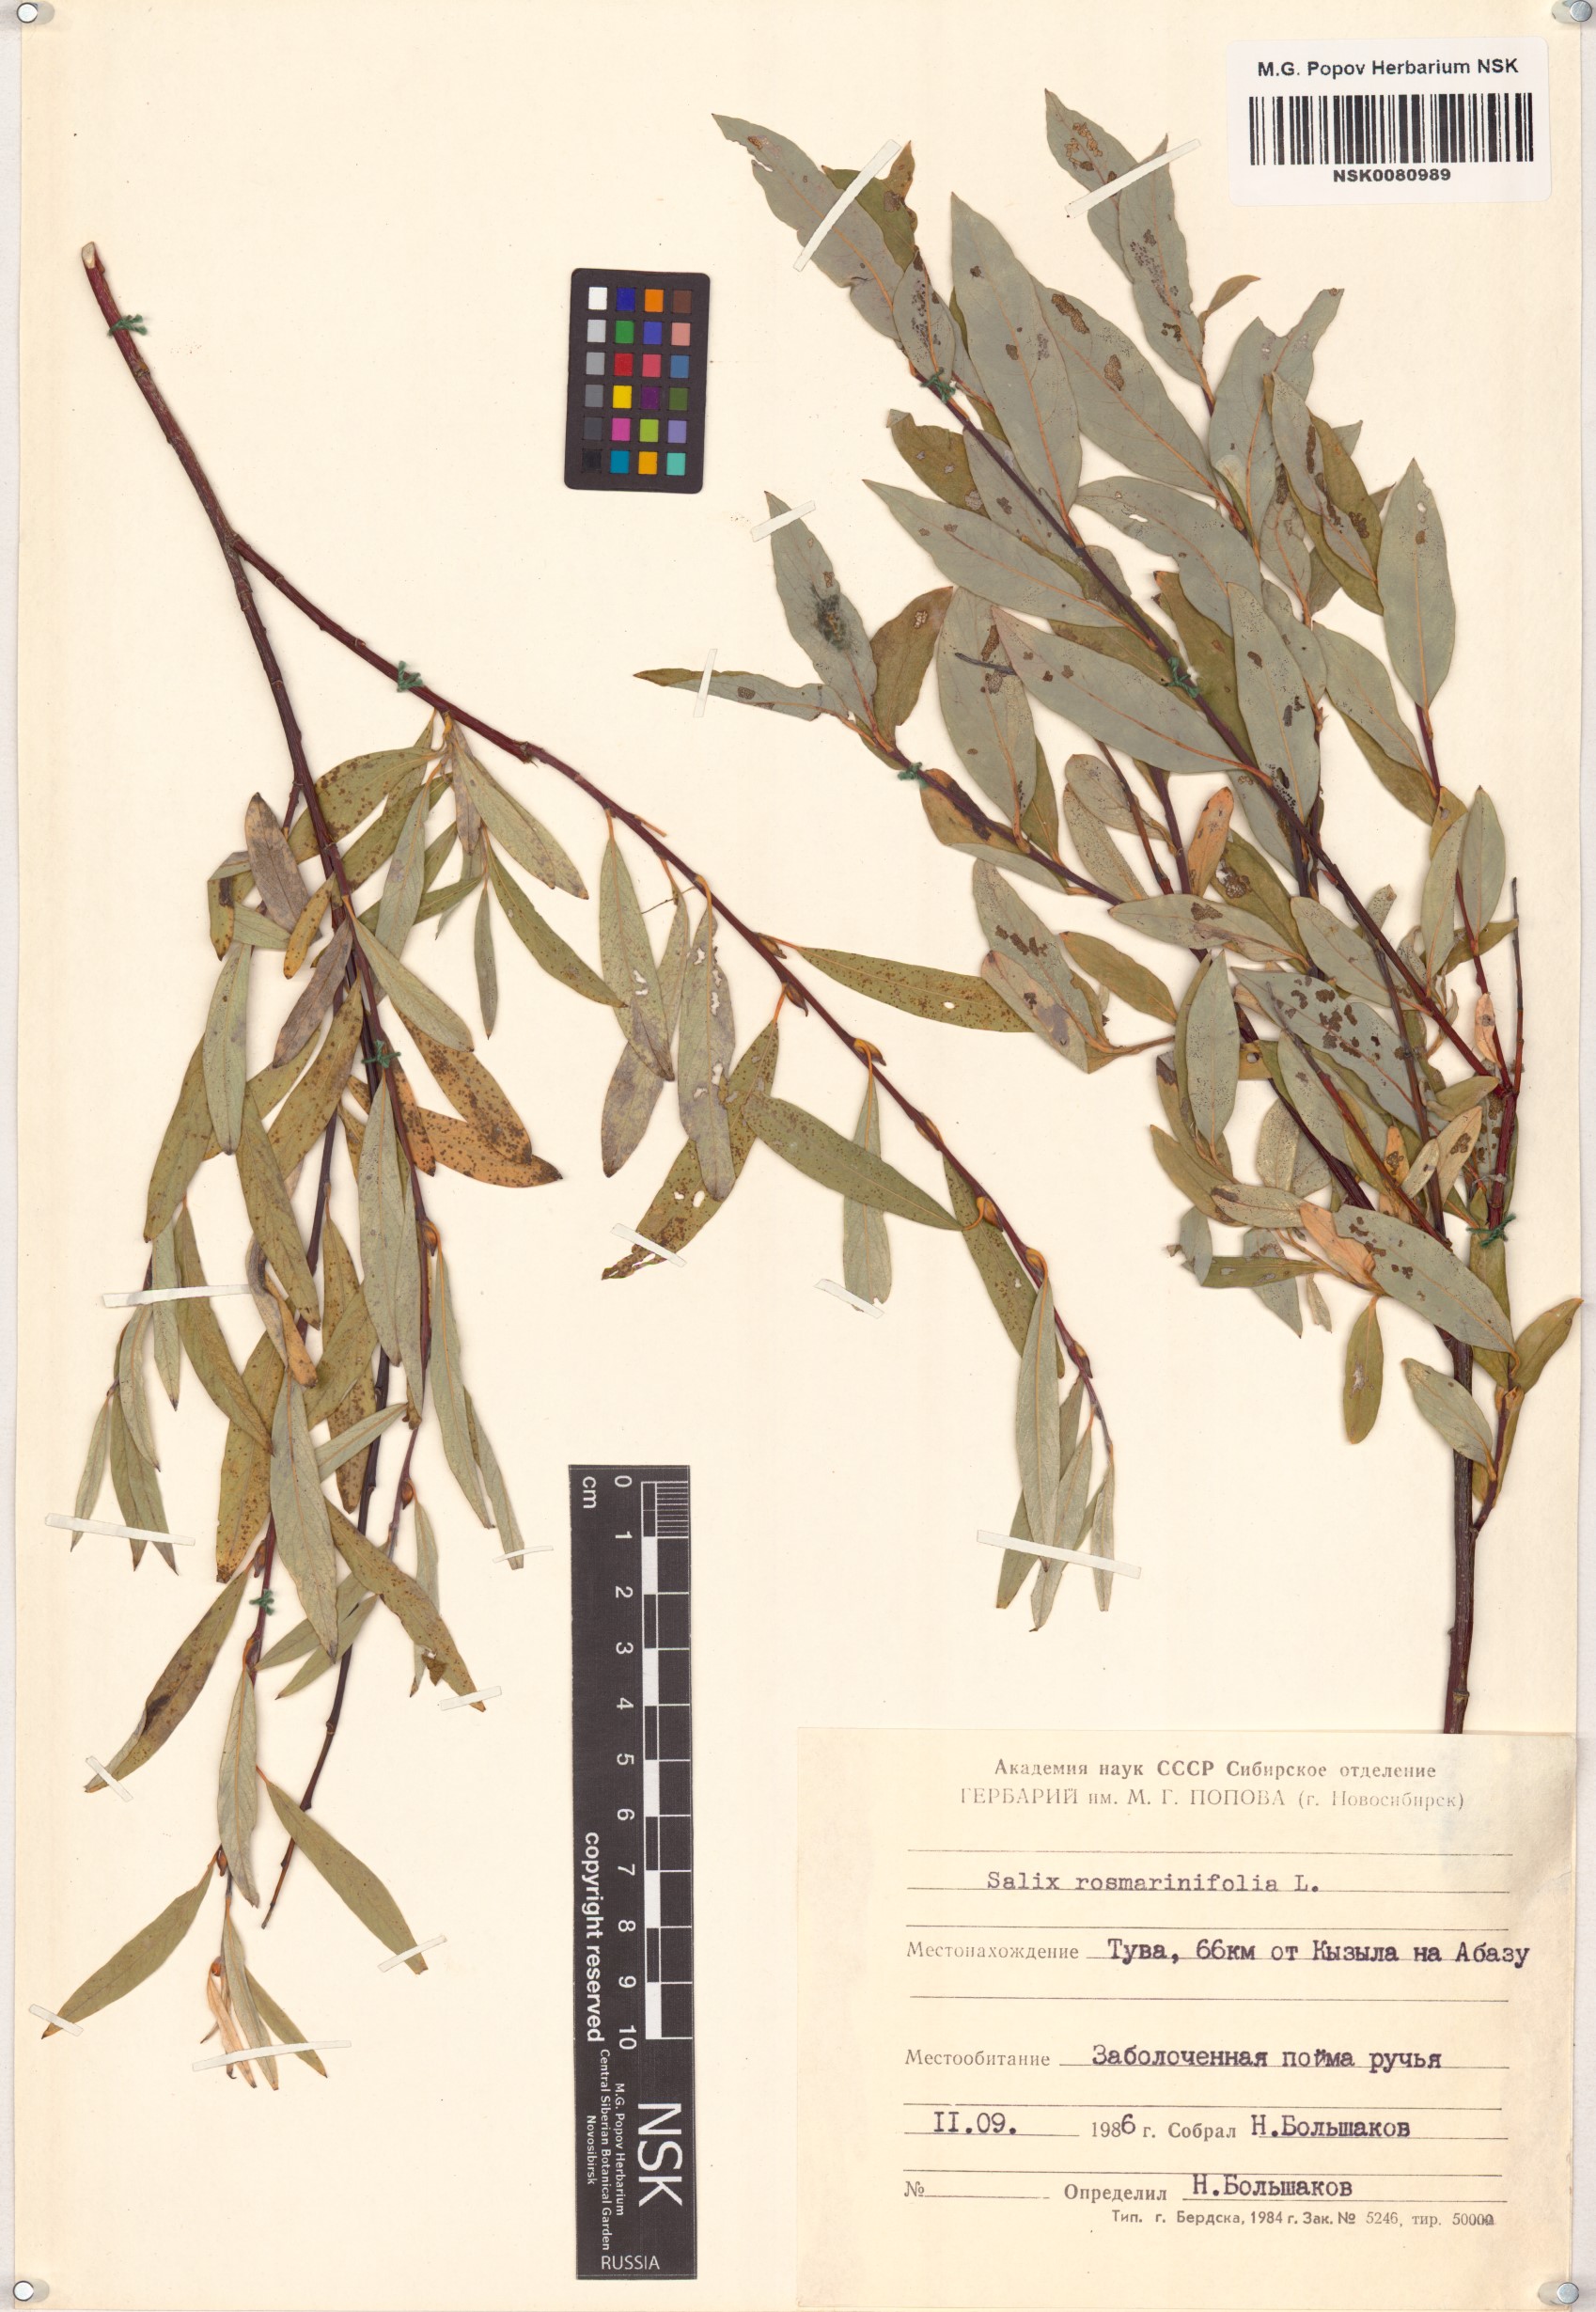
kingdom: Plantae
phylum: Tracheophyta
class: Magnoliopsida
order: Malpighiales
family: Salicaceae
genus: Salix
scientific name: Salix rosmarinifolia
